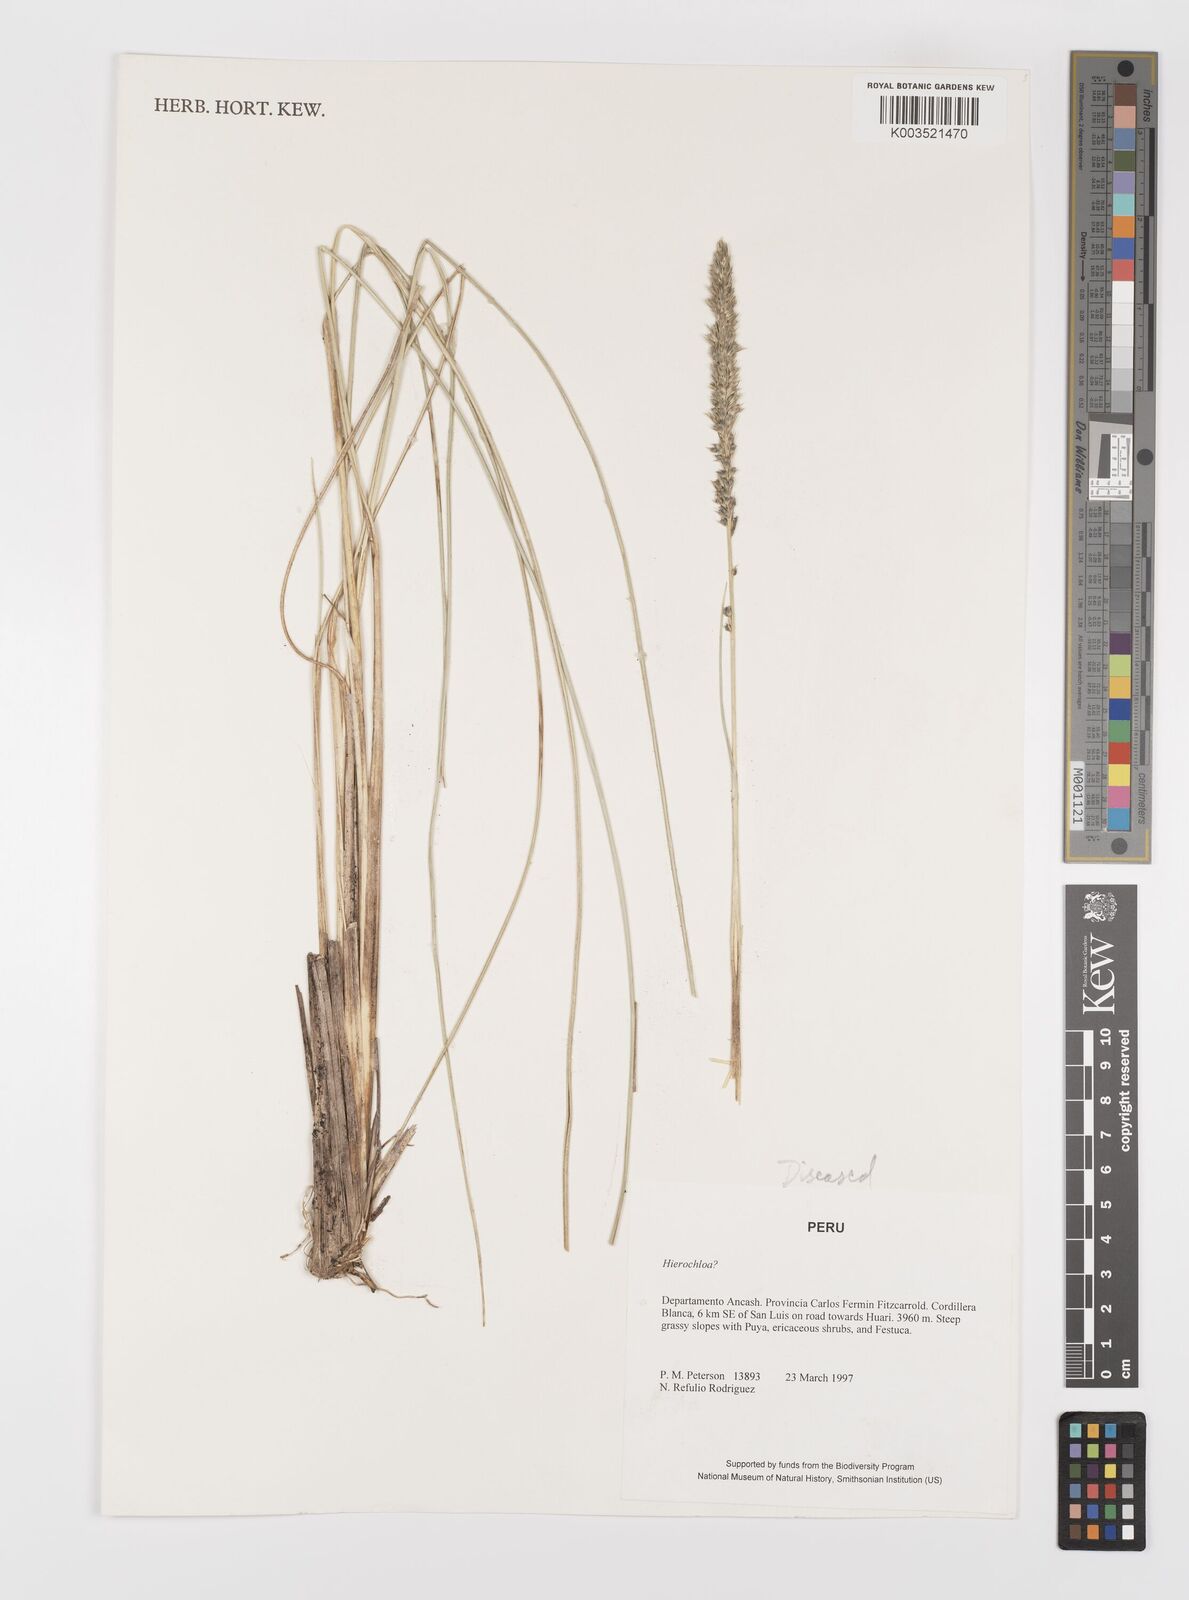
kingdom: Plantae
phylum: Tracheophyta
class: Liliopsida
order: Poales
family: Poaceae
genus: Alopecurus
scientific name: Alopecurus
